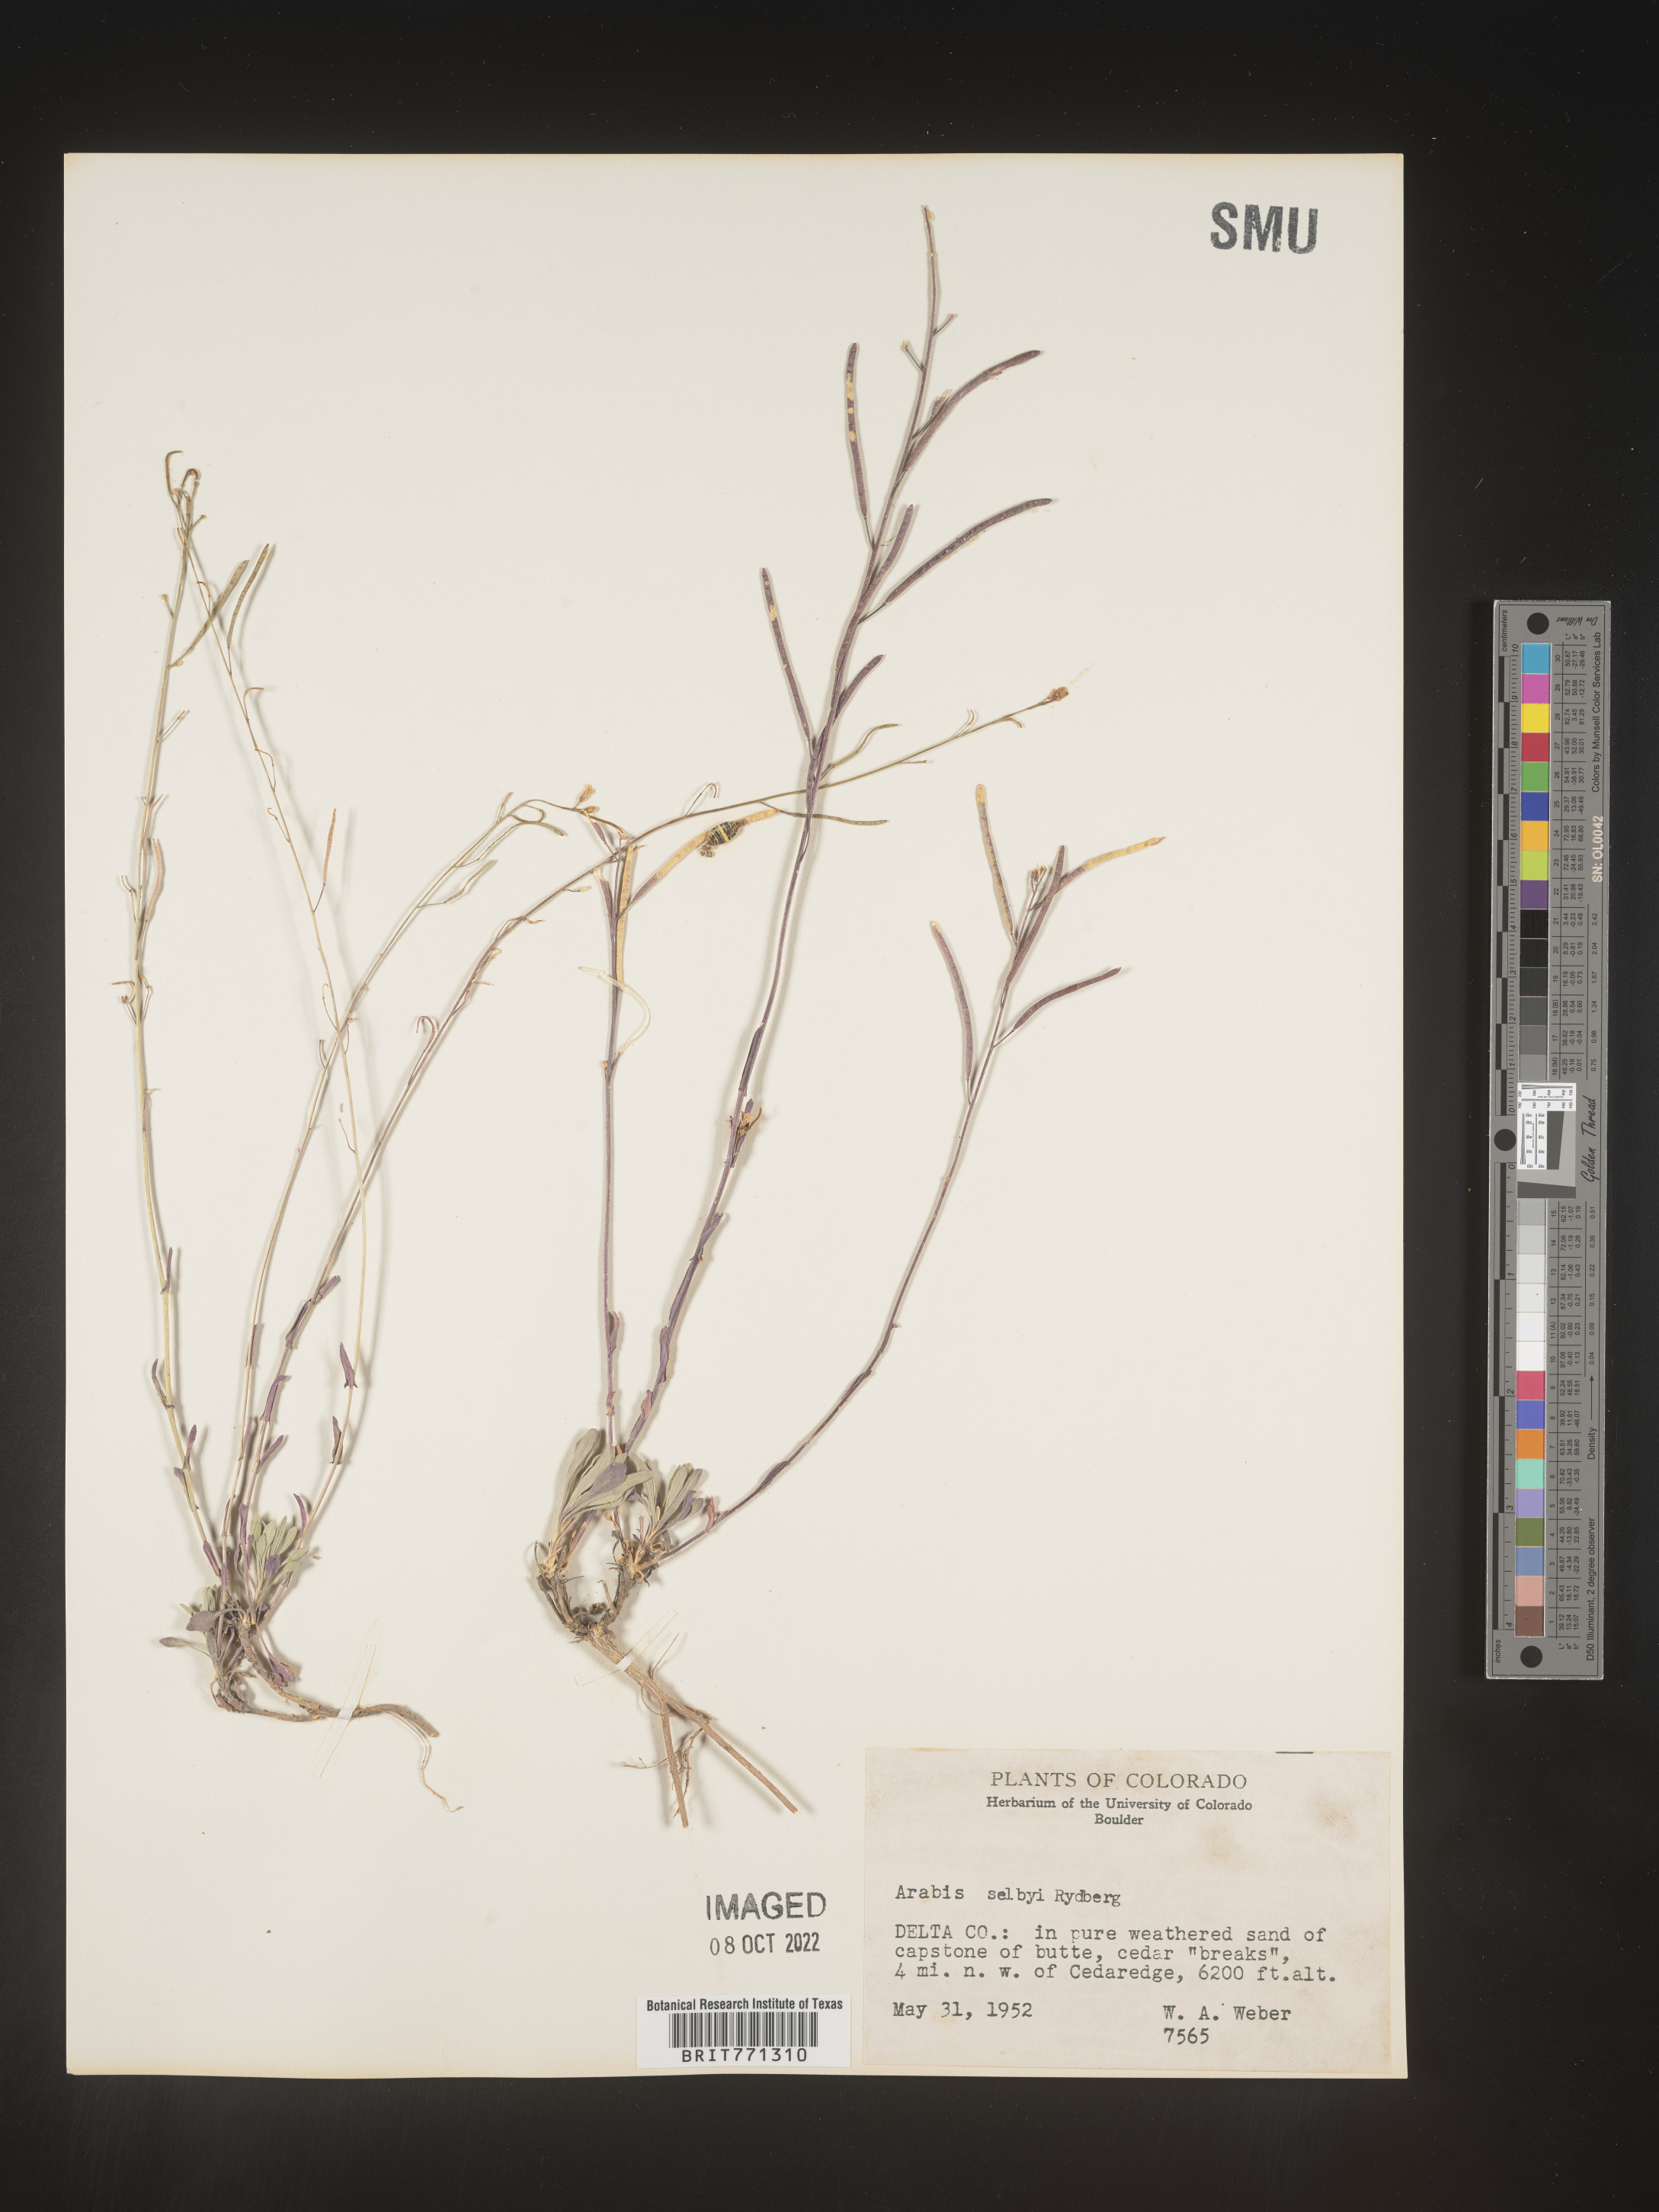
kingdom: Plantae
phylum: Tracheophyta
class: Magnoliopsida
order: Brassicales
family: Brassicaceae
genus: Arabis
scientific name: Arabis
